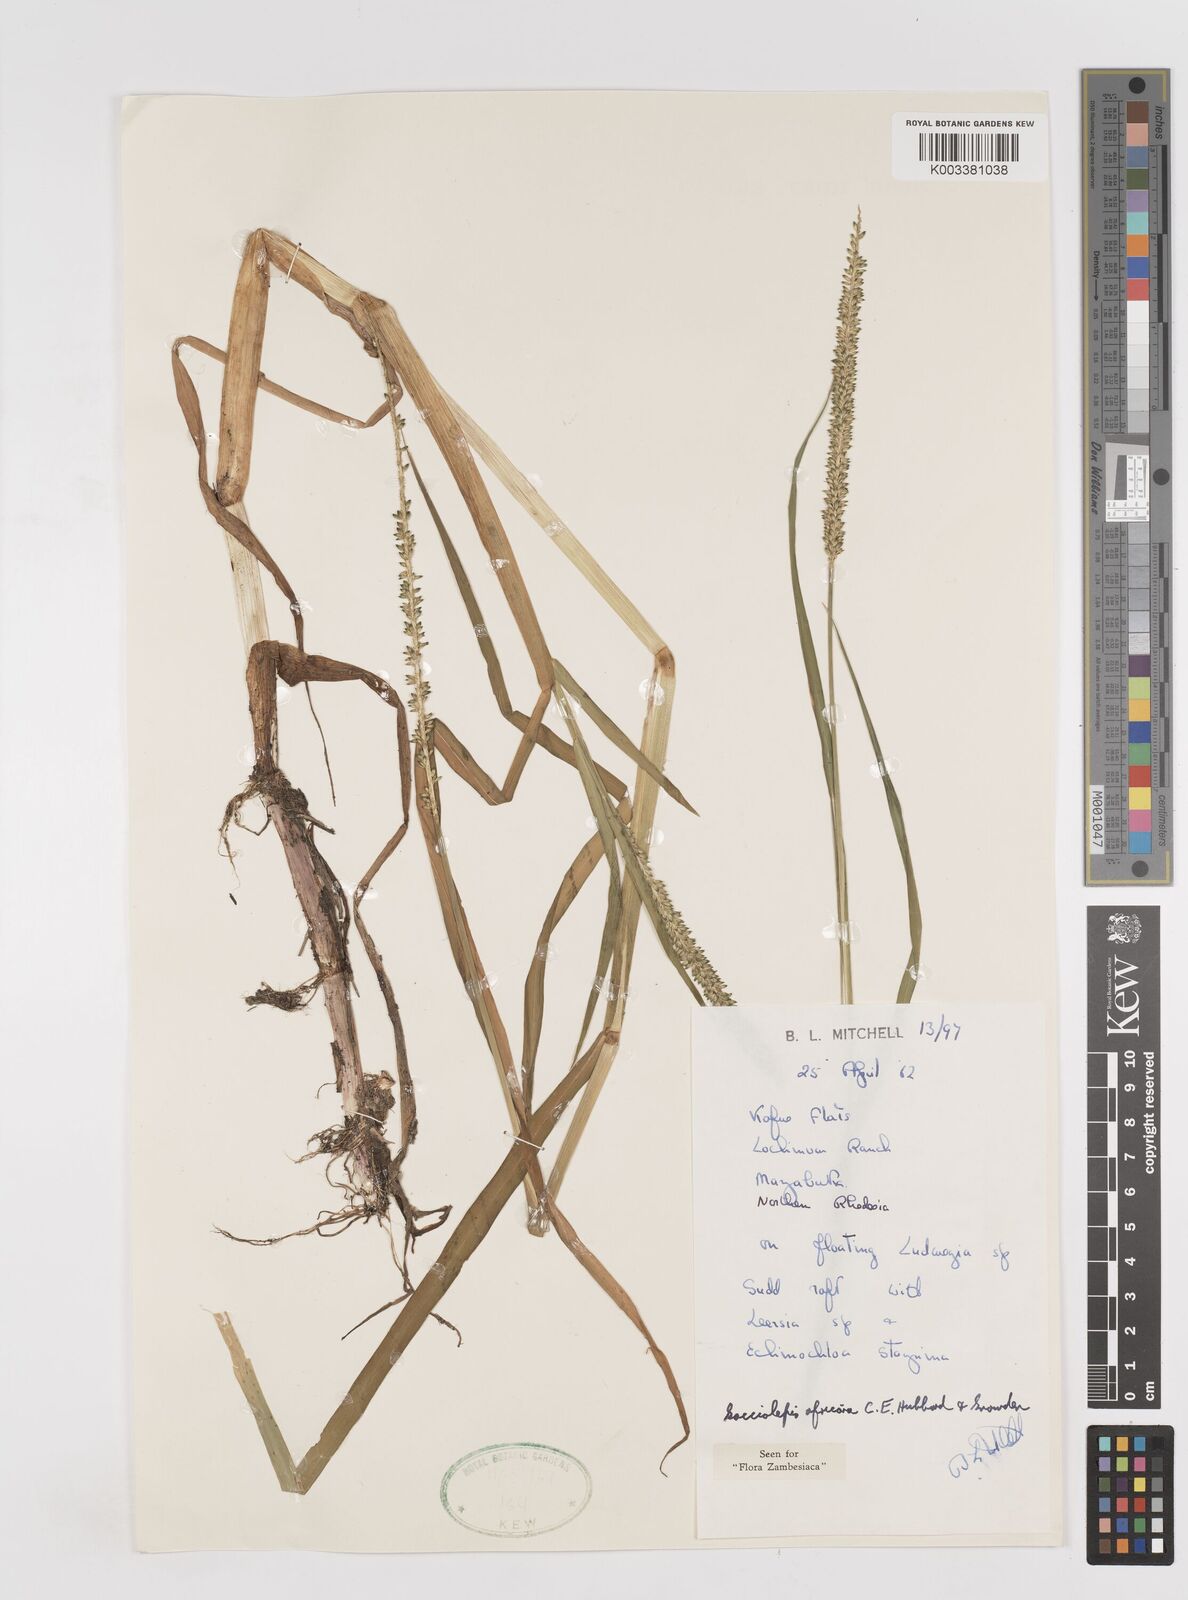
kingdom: Plantae
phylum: Tracheophyta
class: Liliopsida
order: Poales
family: Poaceae
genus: Sacciolepis
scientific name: Sacciolepis africana
